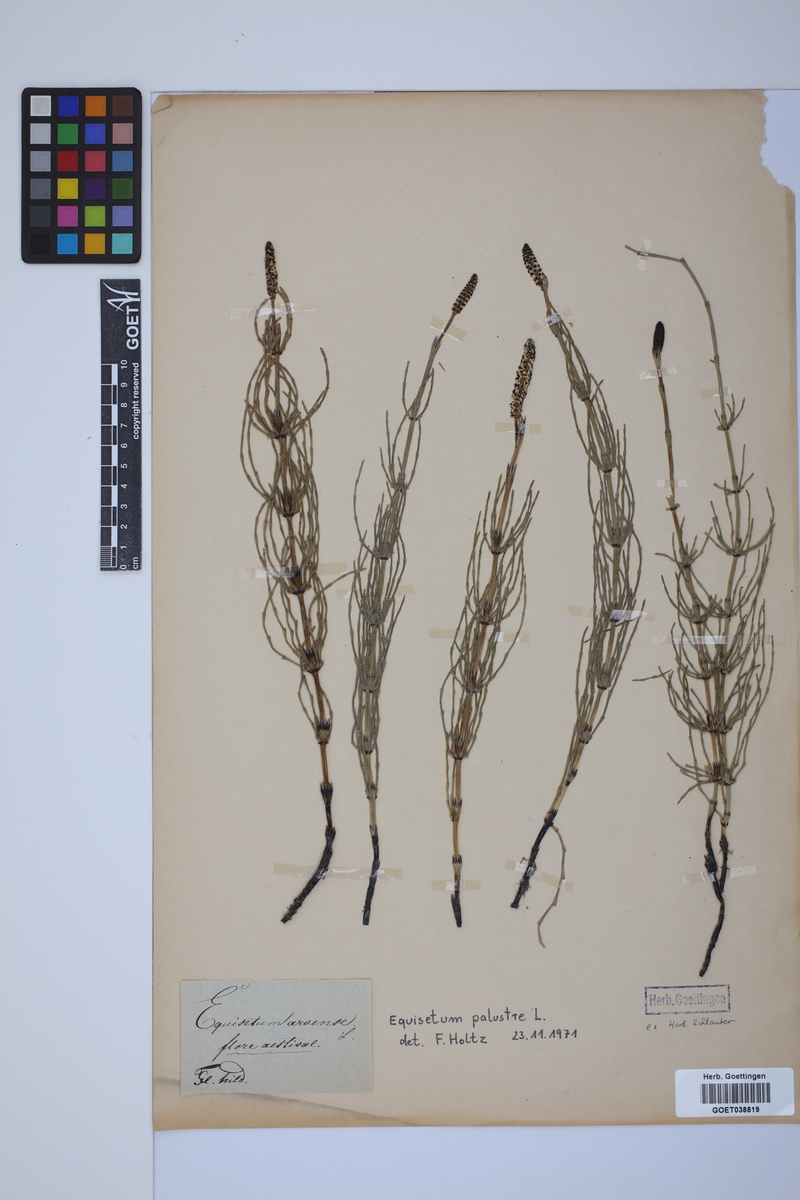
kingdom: Plantae
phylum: Tracheophyta
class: Polypodiopsida
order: Equisetales
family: Equisetaceae
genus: Equisetum
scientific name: Equisetum palustre
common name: Marsh horsetail
